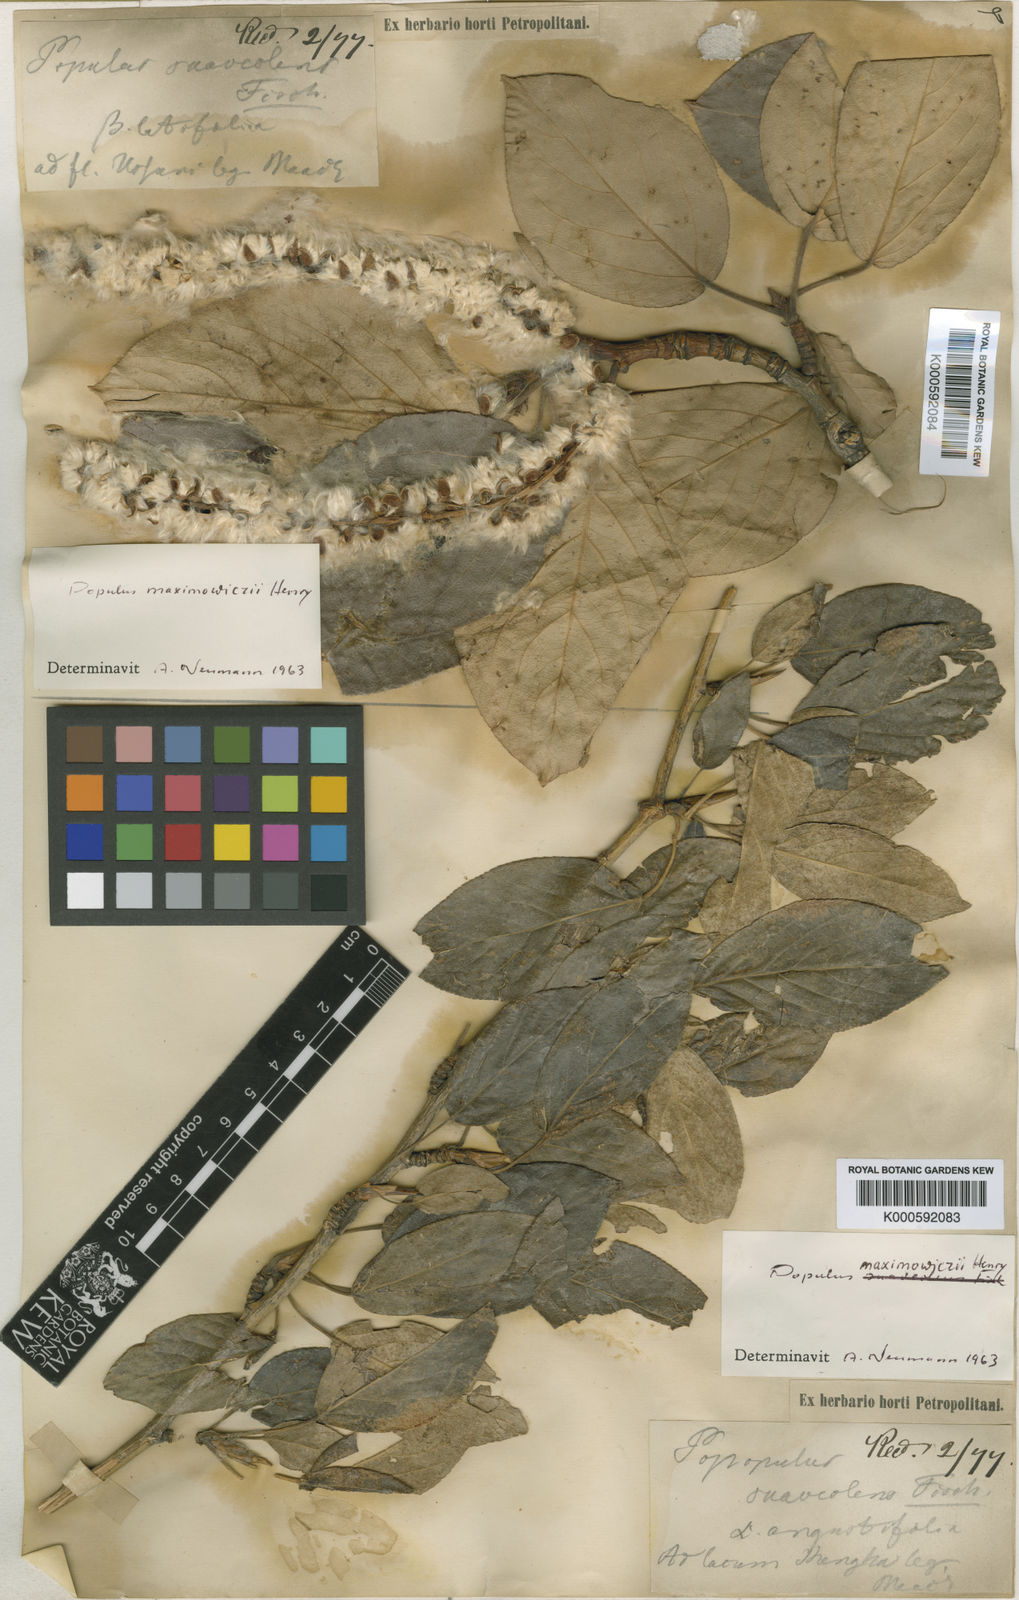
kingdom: Plantae
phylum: Tracheophyta
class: Magnoliopsida
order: Malpighiales
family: Salicaceae
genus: Populus
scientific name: Populus suaveolens
